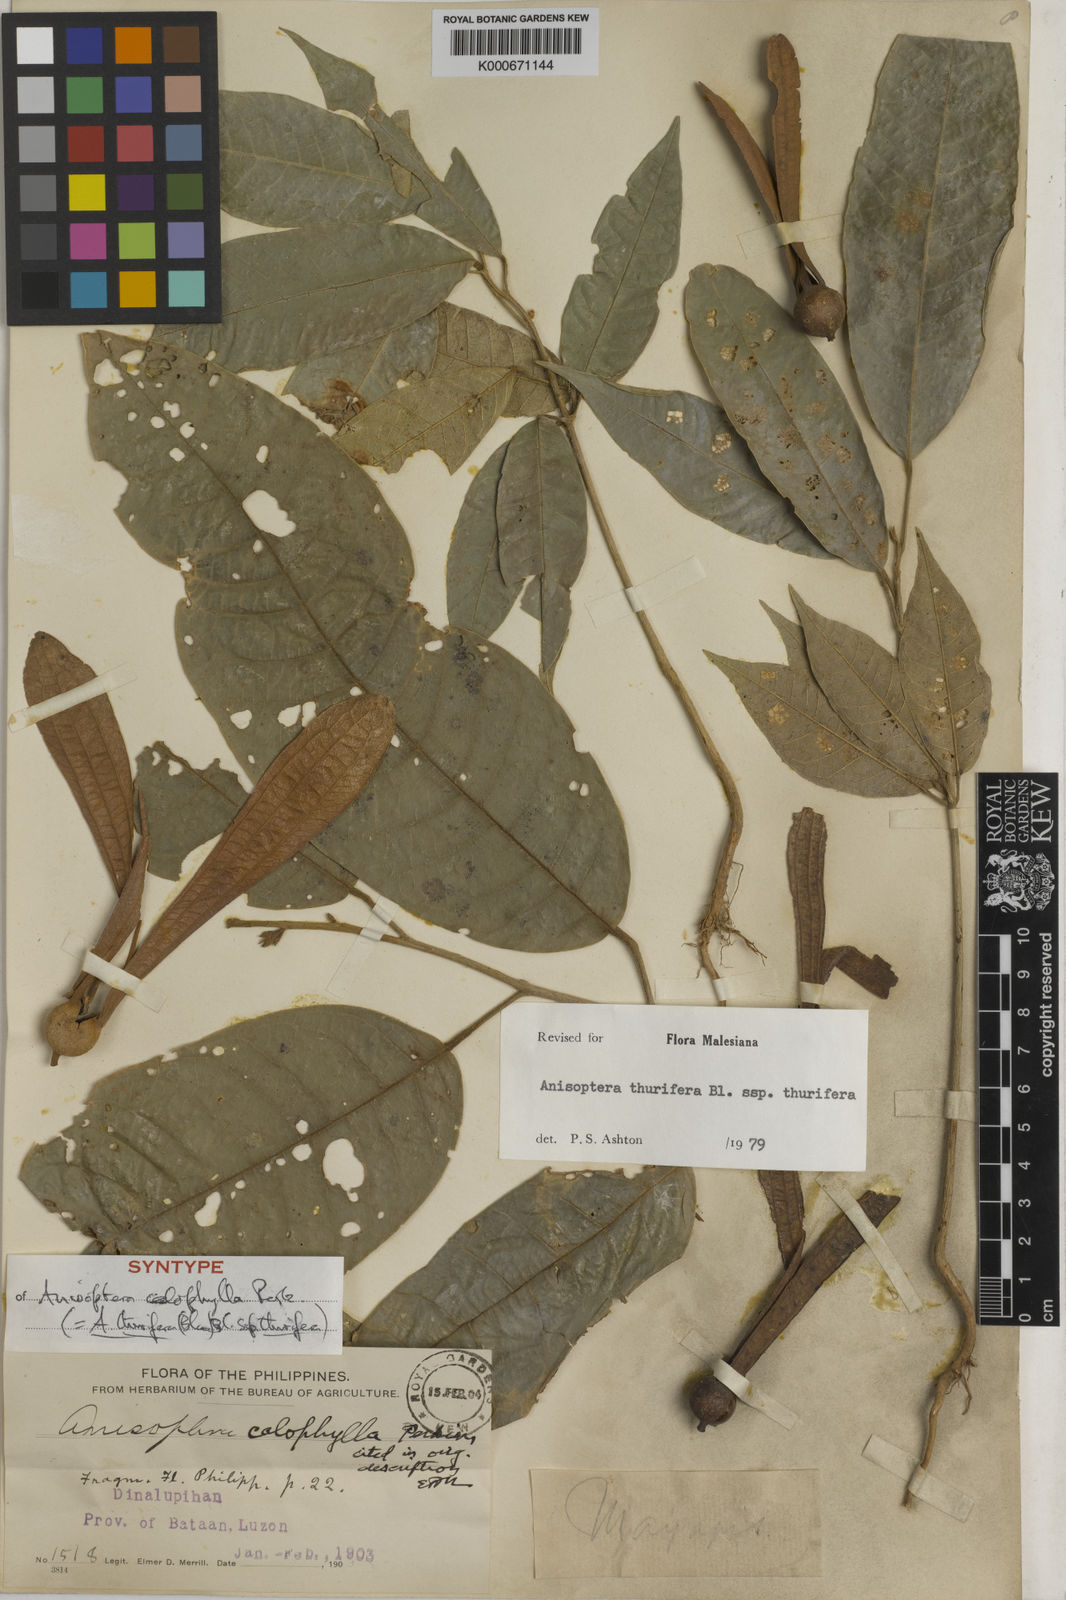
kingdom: Plantae
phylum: Tracheophyta
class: Magnoliopsida
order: Malvales
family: Dipterocarpaceae
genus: Anisoptera
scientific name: Anisoptera thurifera
